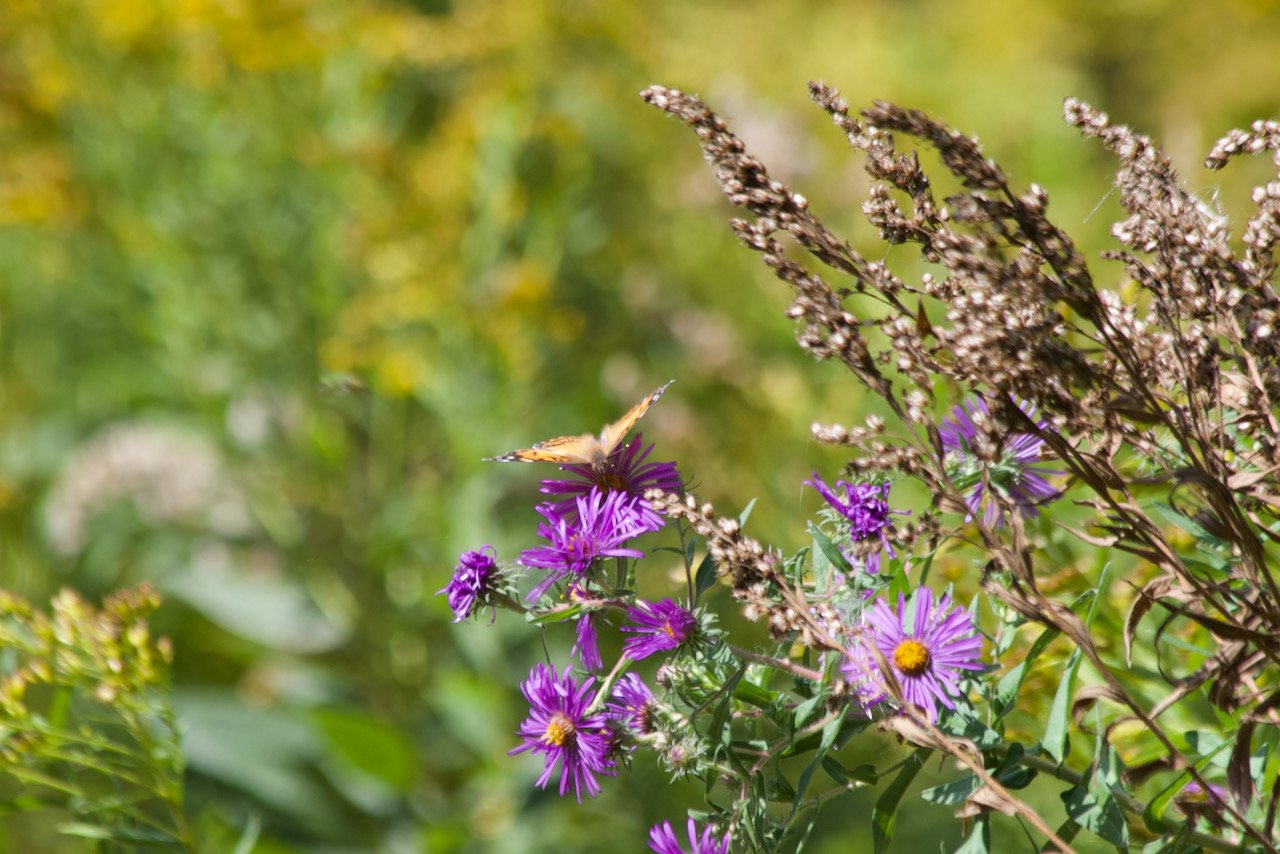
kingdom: Animalia
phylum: Arthropoda
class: Insecta
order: Lepidoptera
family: Nymphalidae
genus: Vanessa
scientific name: Vanessa cardui
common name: Painted Lady
